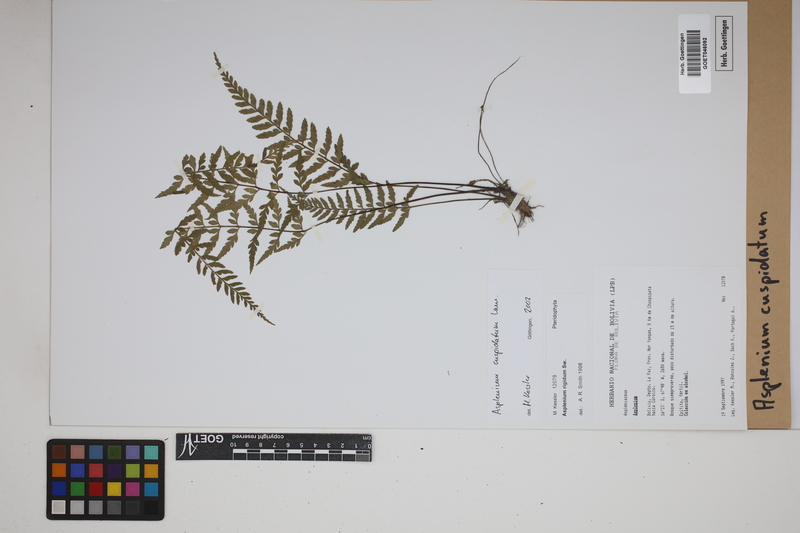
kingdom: Plantae
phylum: Tracheophyta
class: Polypodiopsida
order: Polypodiales
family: Aspleniaceae
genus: Asplenium
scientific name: Asplenium cuspidatum
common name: Eared spleenwort
